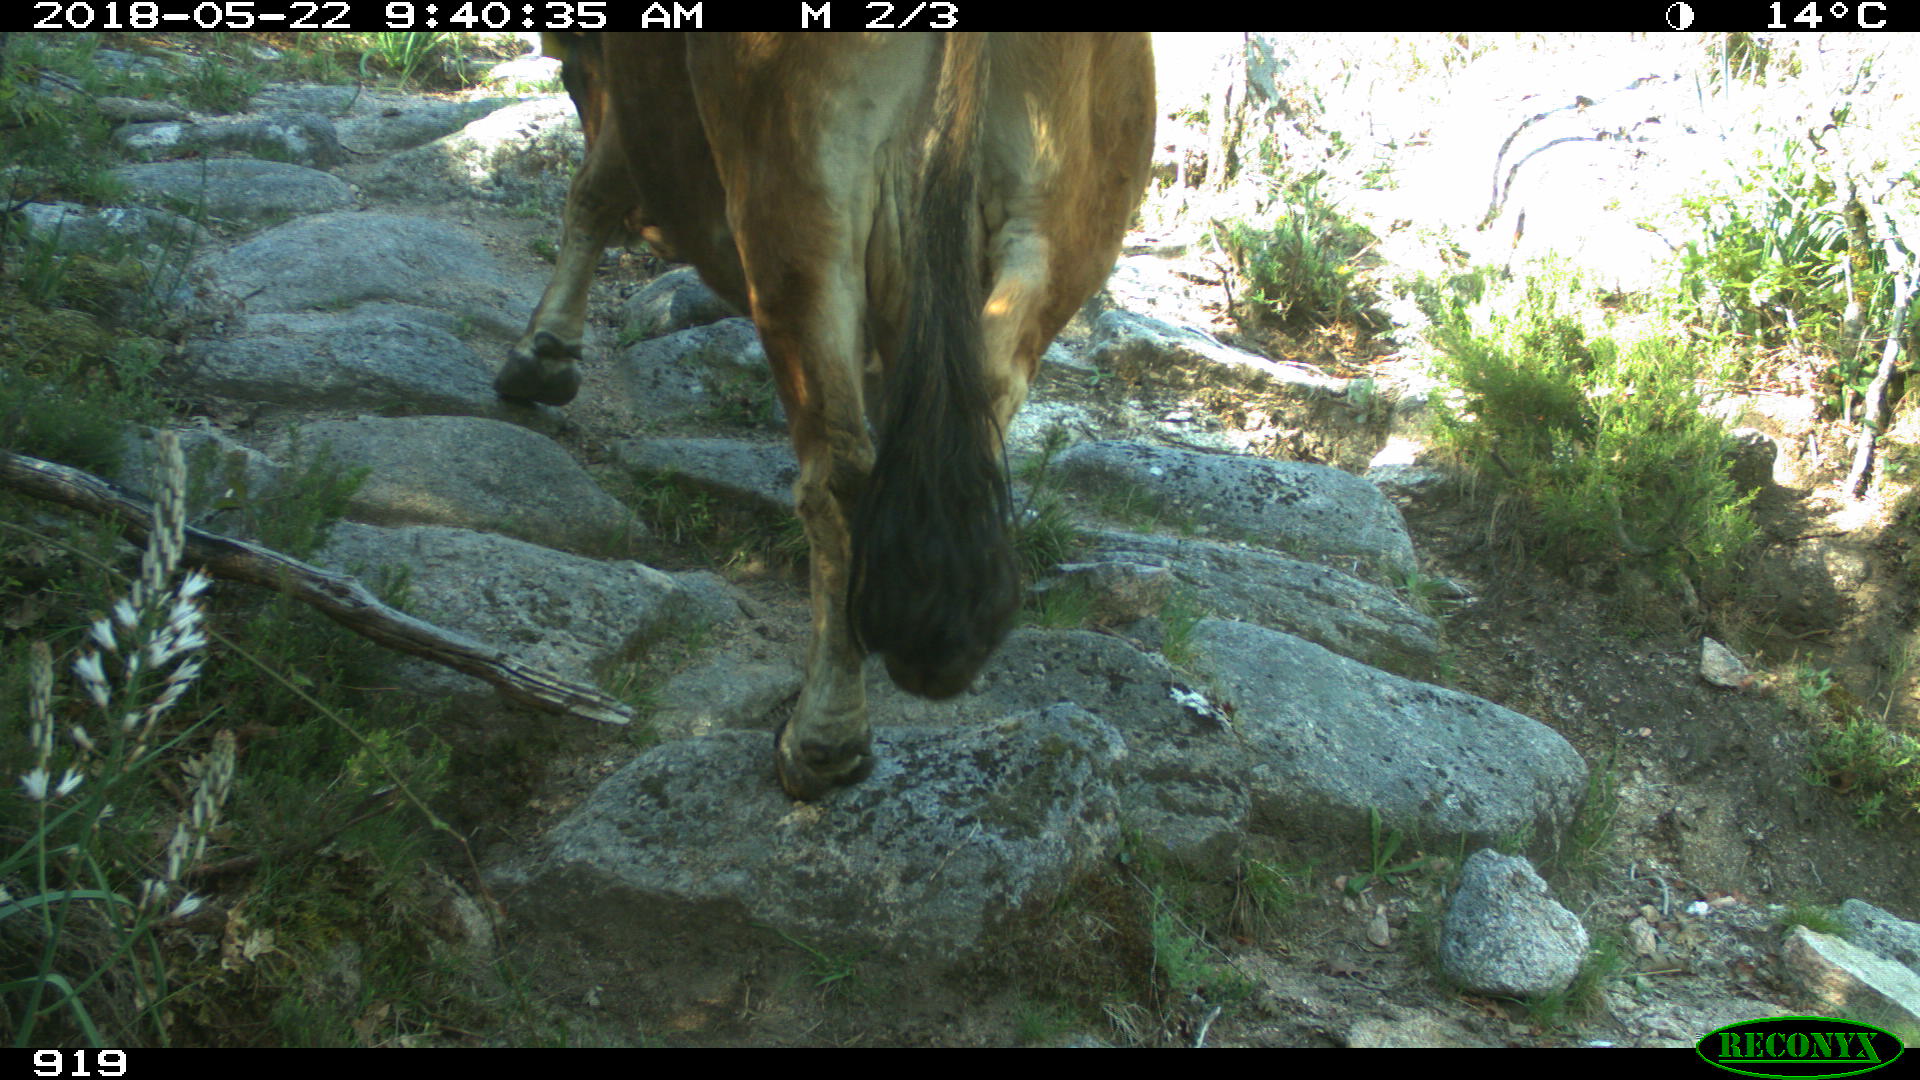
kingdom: Animalia
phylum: Chordata
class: Mammalia
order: Artiodactyla
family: Bovidae
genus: Bos
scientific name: Bos taurus
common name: Domesticated cattle
